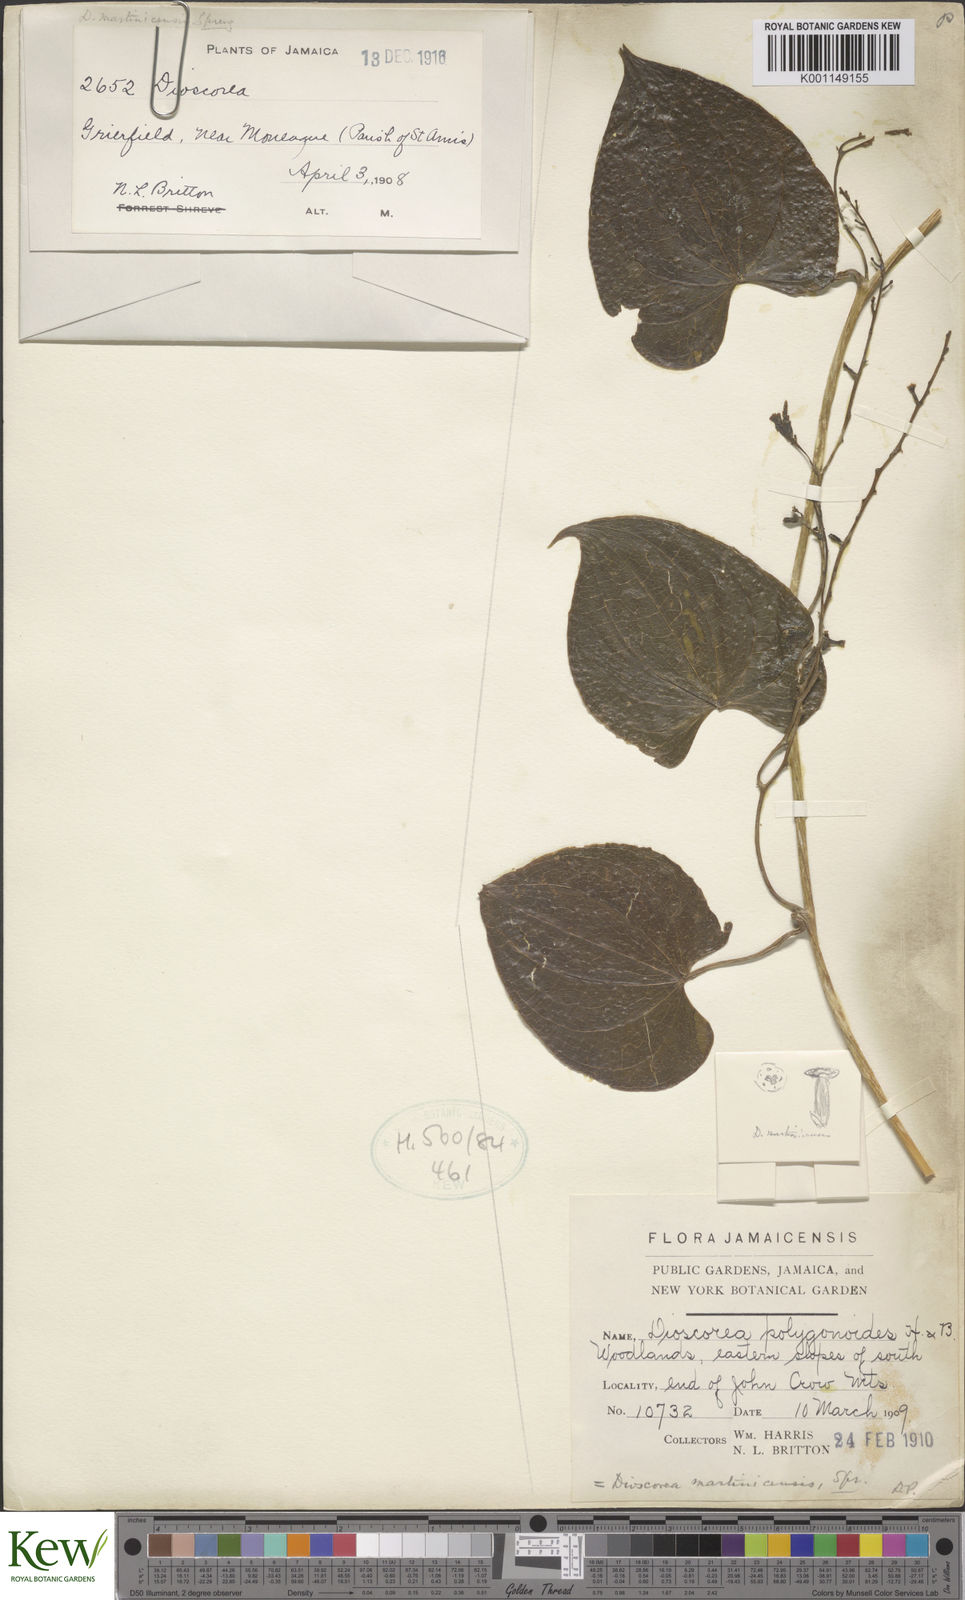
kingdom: Plantae
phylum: Tracheophyta
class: Liliopsida
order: Dioscoreales
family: Dioscoreaceae
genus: Dioscorea
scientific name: Dioscorea polygonoides
